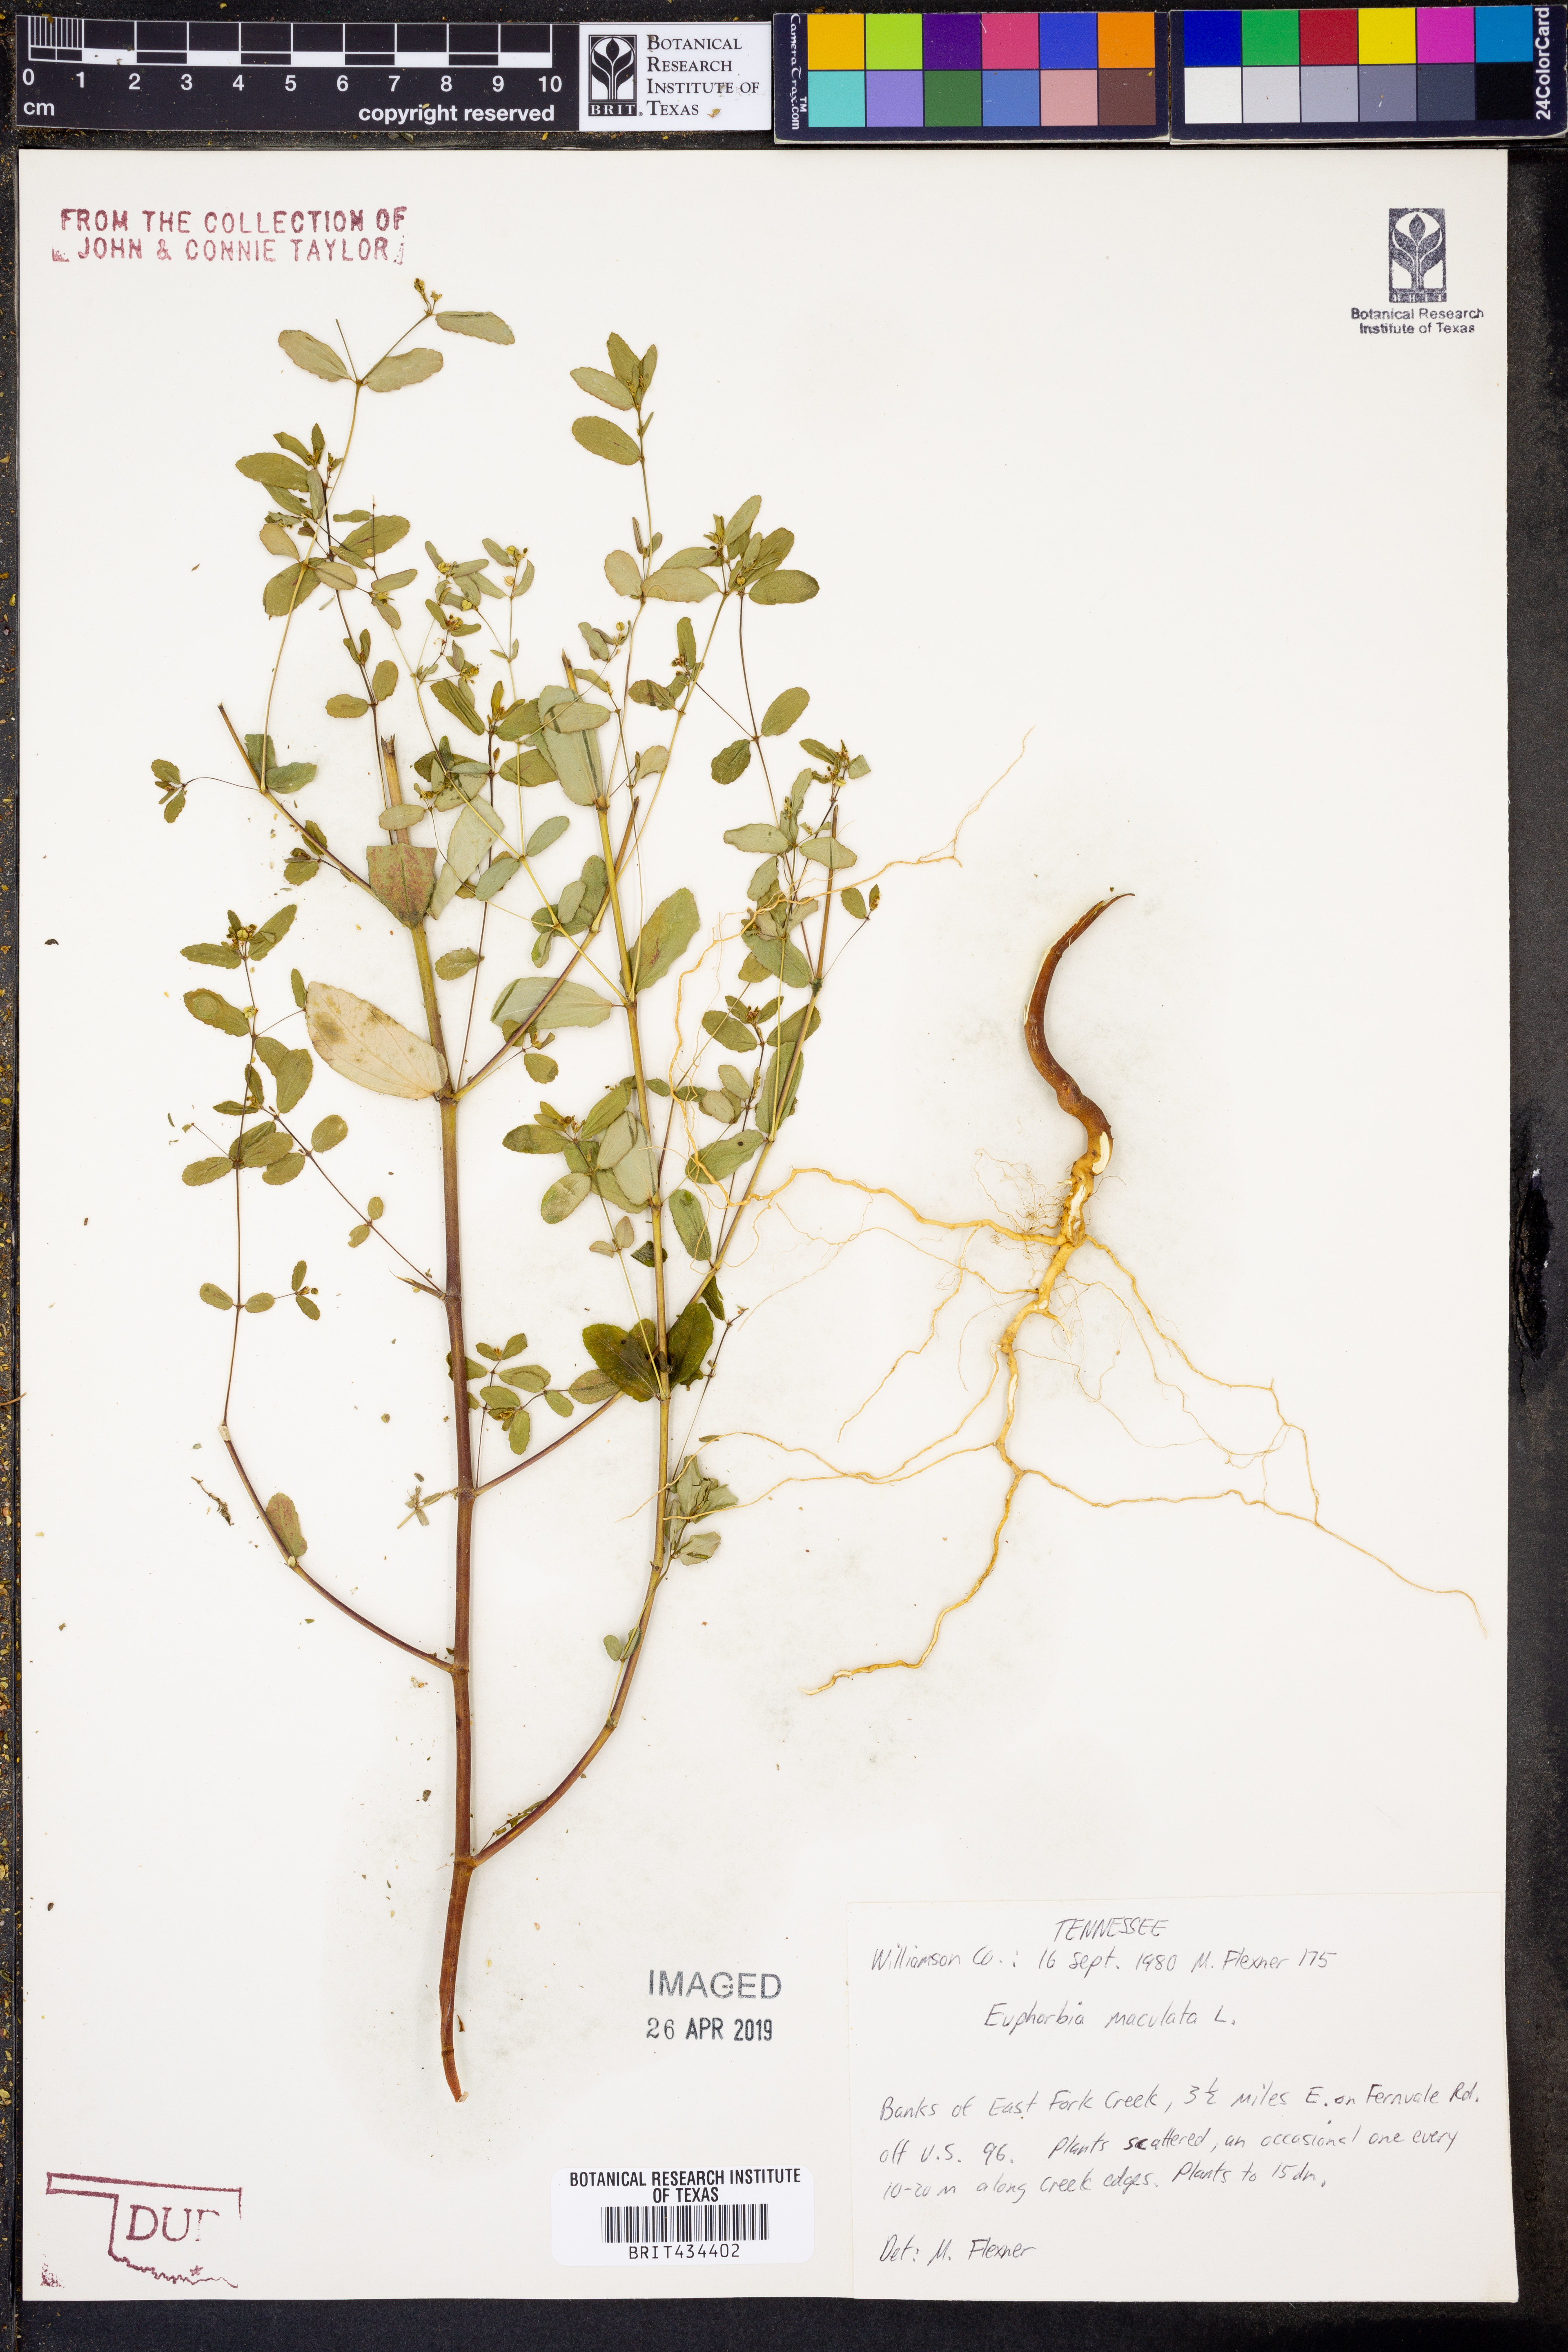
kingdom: Plantae
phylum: Tracheophyta
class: Magnoliopsida
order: Malpighiales
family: Euphorbiaceae
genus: Euphorbia
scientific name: Euphorbia maculata
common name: Spotted spurge
